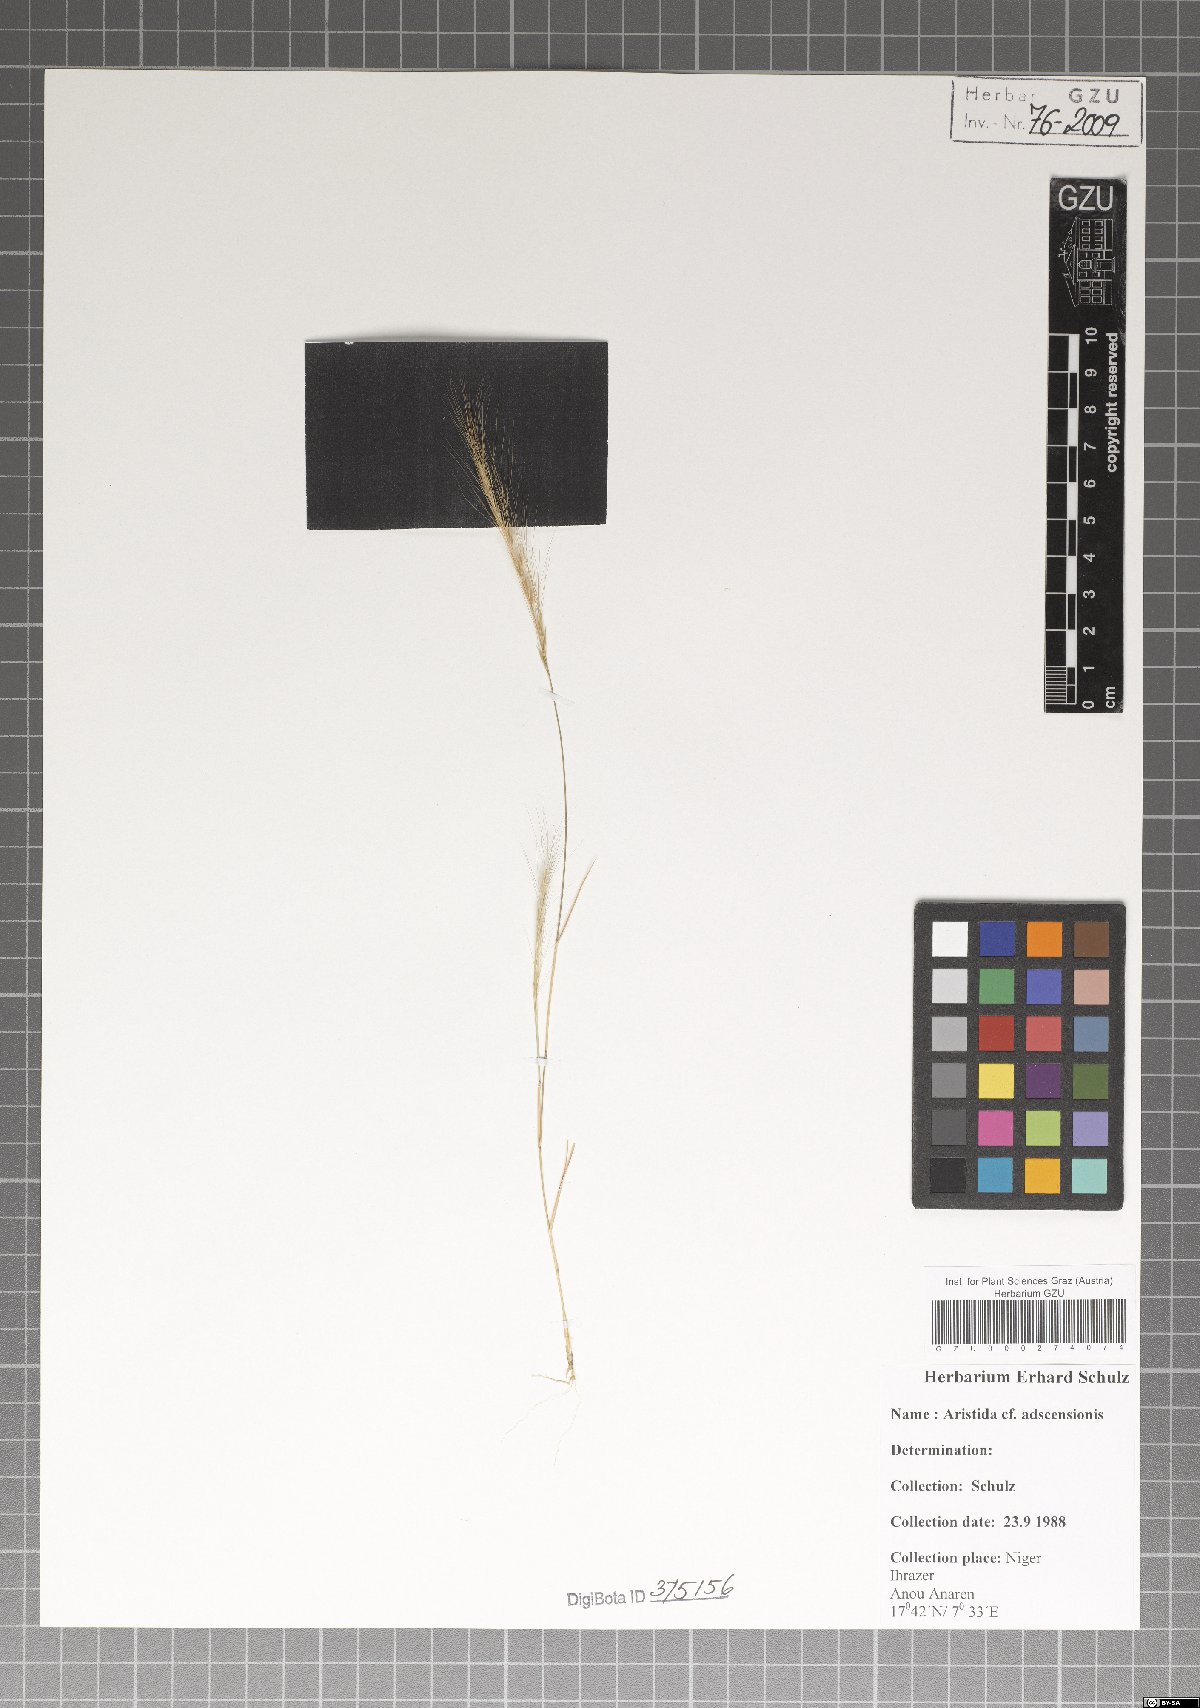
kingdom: Plantae
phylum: Tracheophyta
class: Liliopsida
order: Poales
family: Poaceae
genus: Aristida
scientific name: Aristida adscensionis
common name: Sixweeks threeawn
